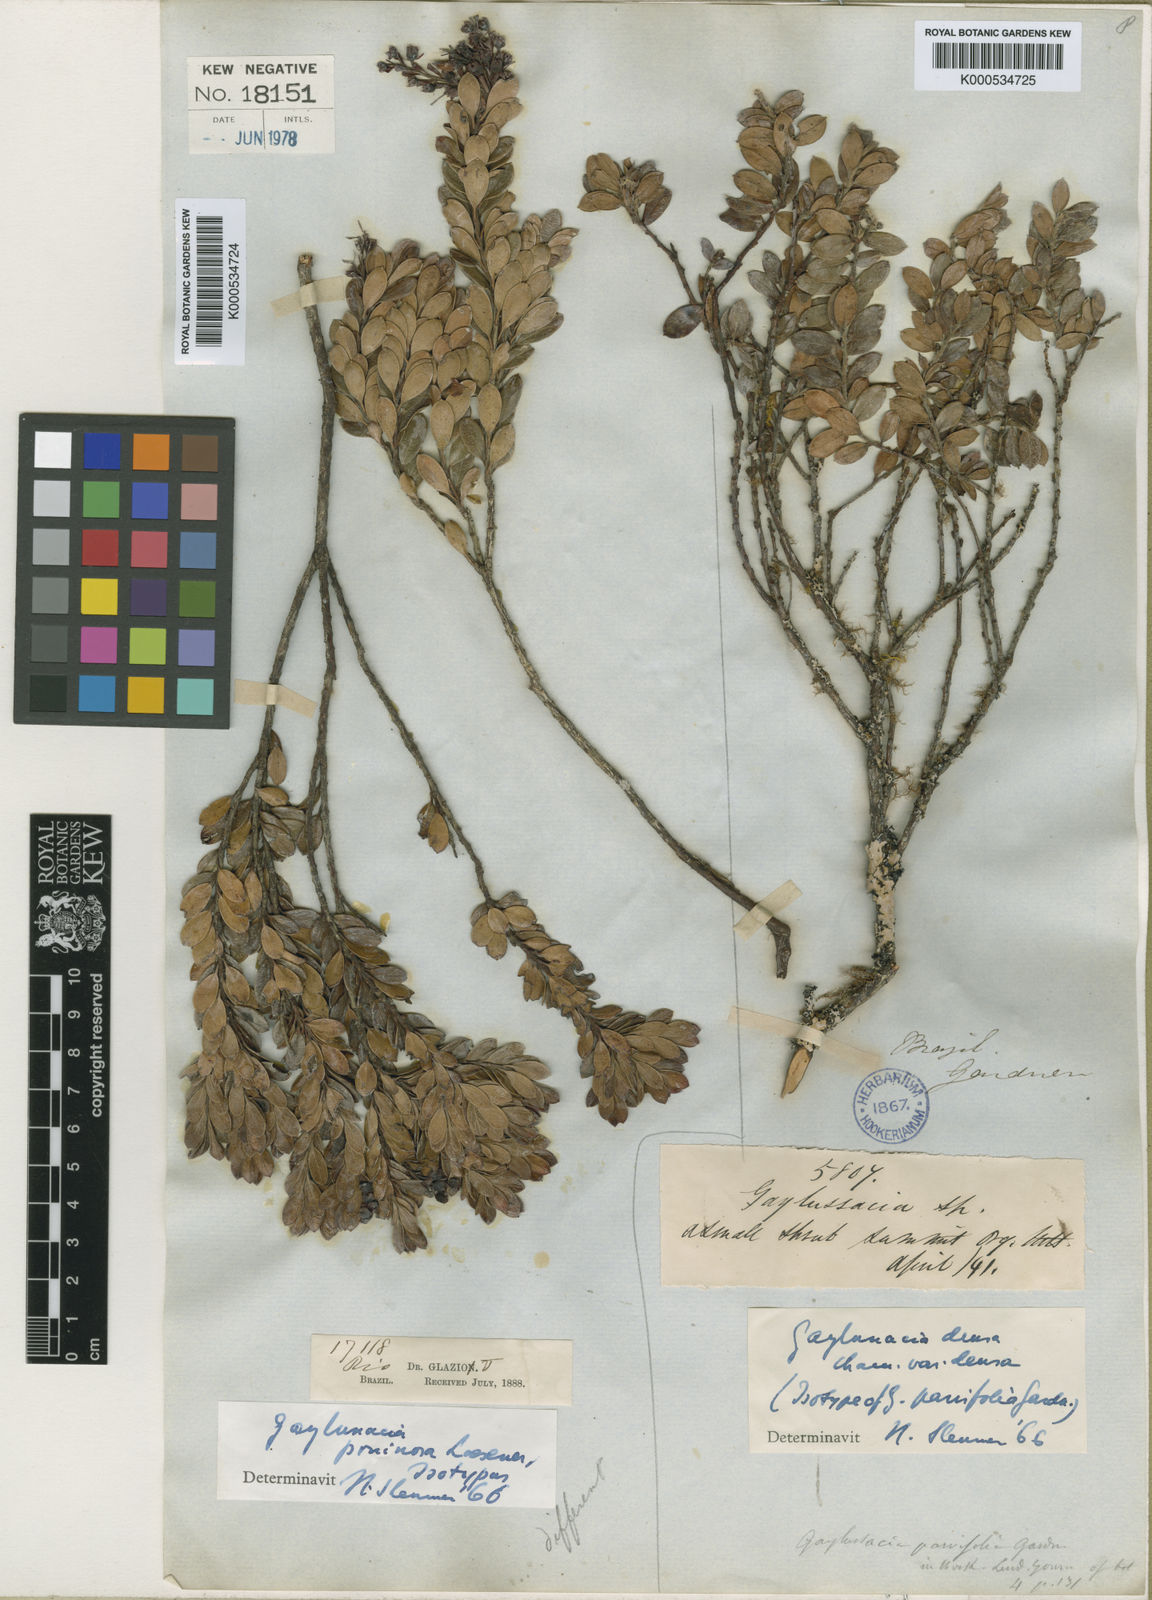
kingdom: Plantae
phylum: Tracheophyta
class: Magnoliopsida
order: Ericales
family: Ericaceae
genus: Gaylussacia
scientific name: Gaylussacia densa
